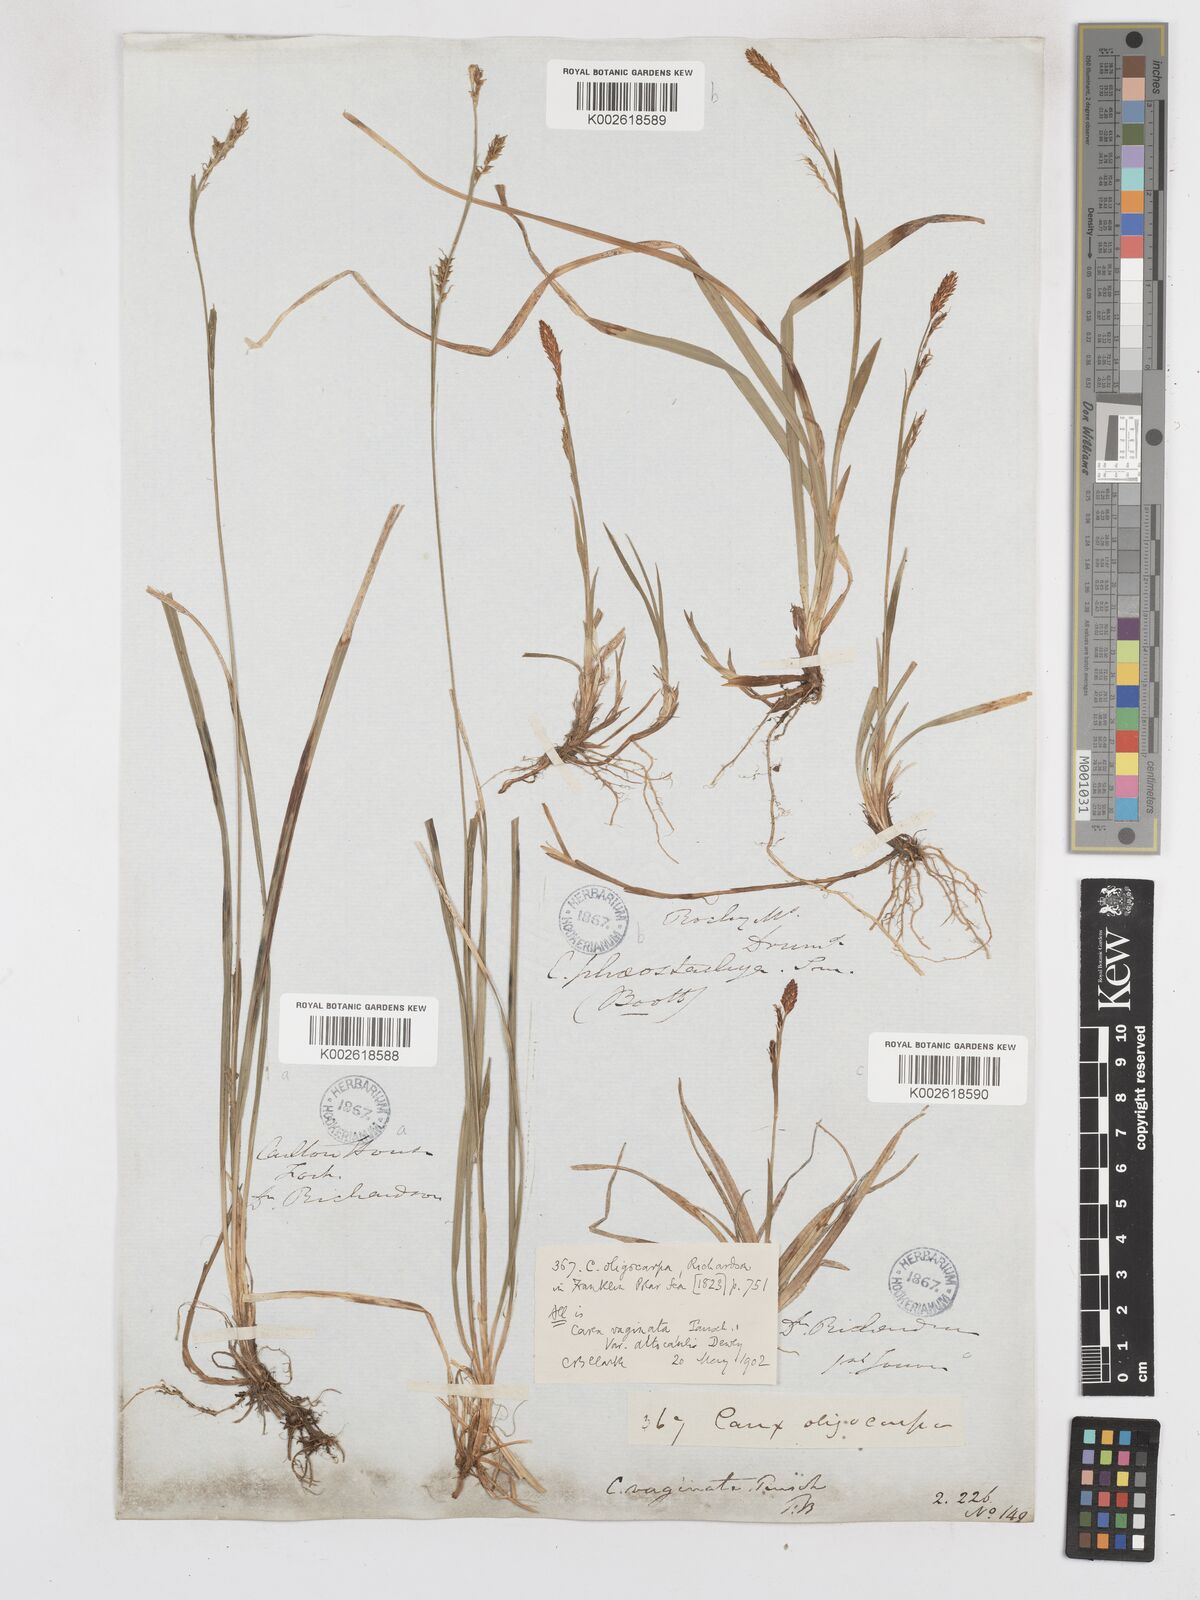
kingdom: Plantae
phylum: Tracheophyta
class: Liliopsida
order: Poales
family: Cyperaceae
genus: Carex
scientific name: Carex vaginata
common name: Sheathed sedge
